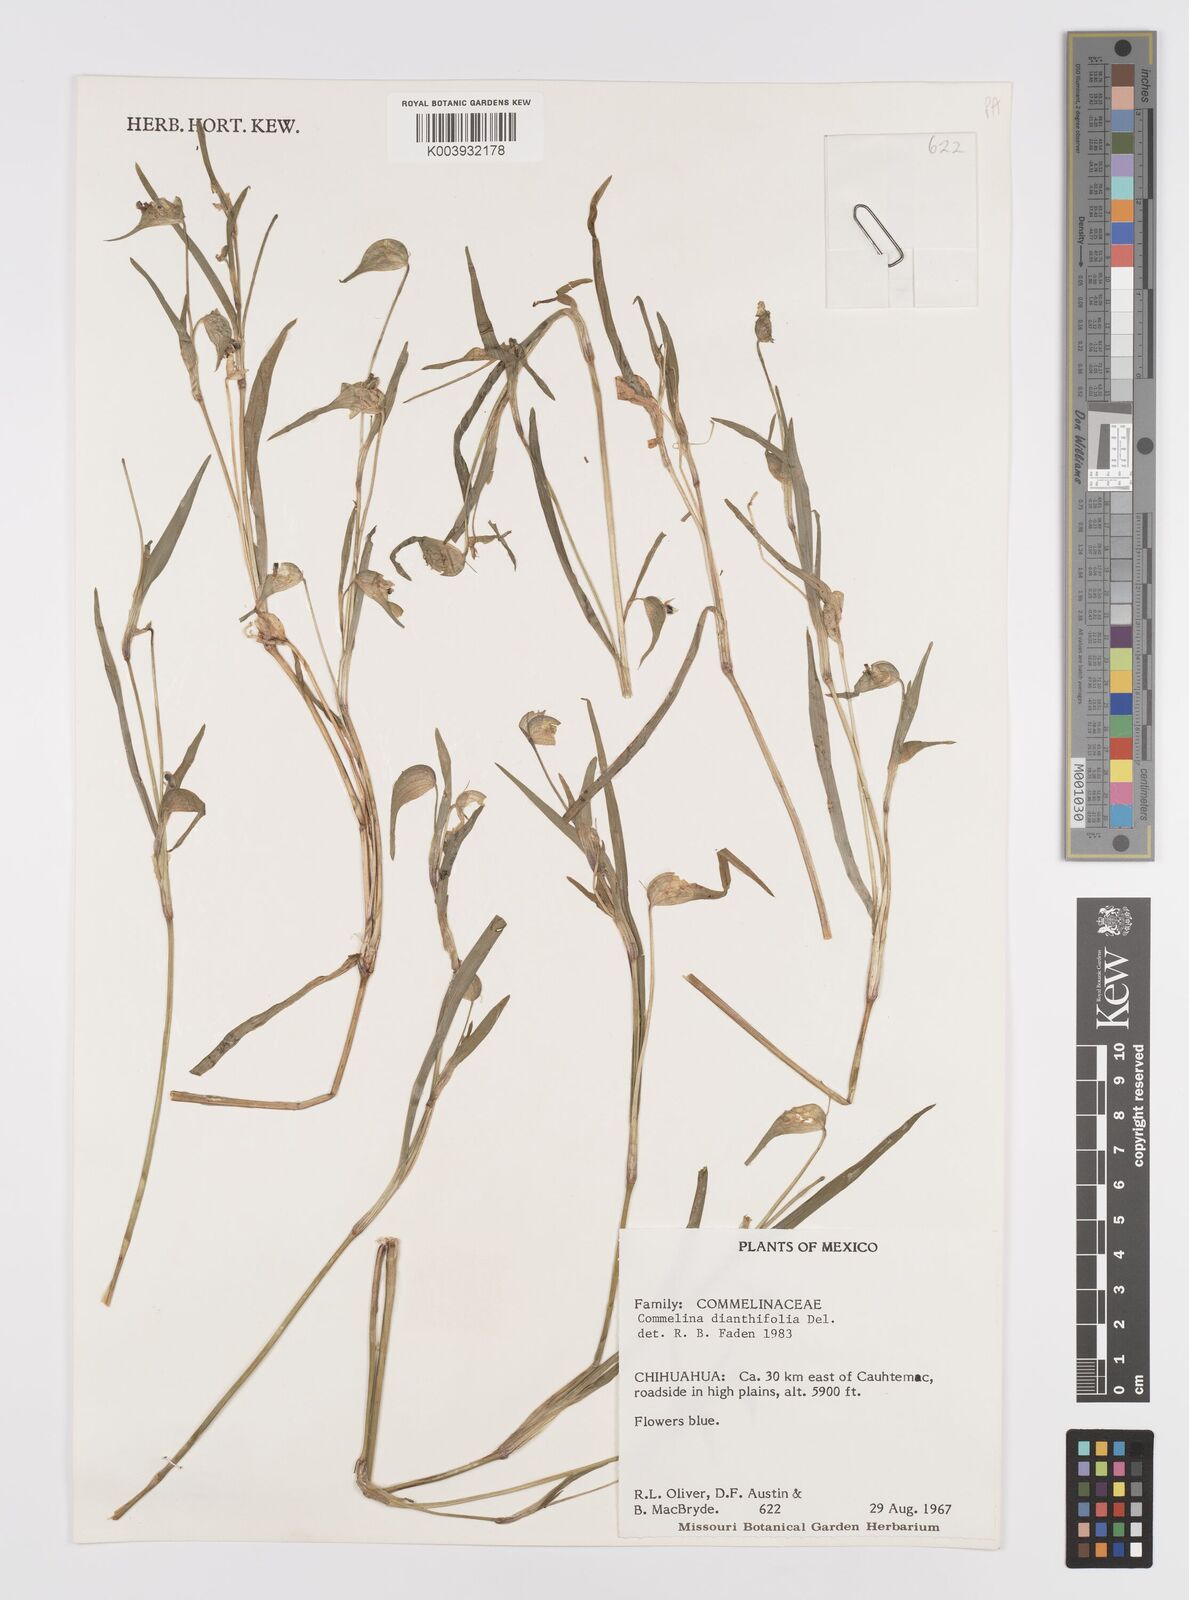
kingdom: Plantae
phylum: Tracheophyta
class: Liliopsida
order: Commelinales
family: Commelinaceae
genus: Commelina
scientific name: Commelina dianthifolia
